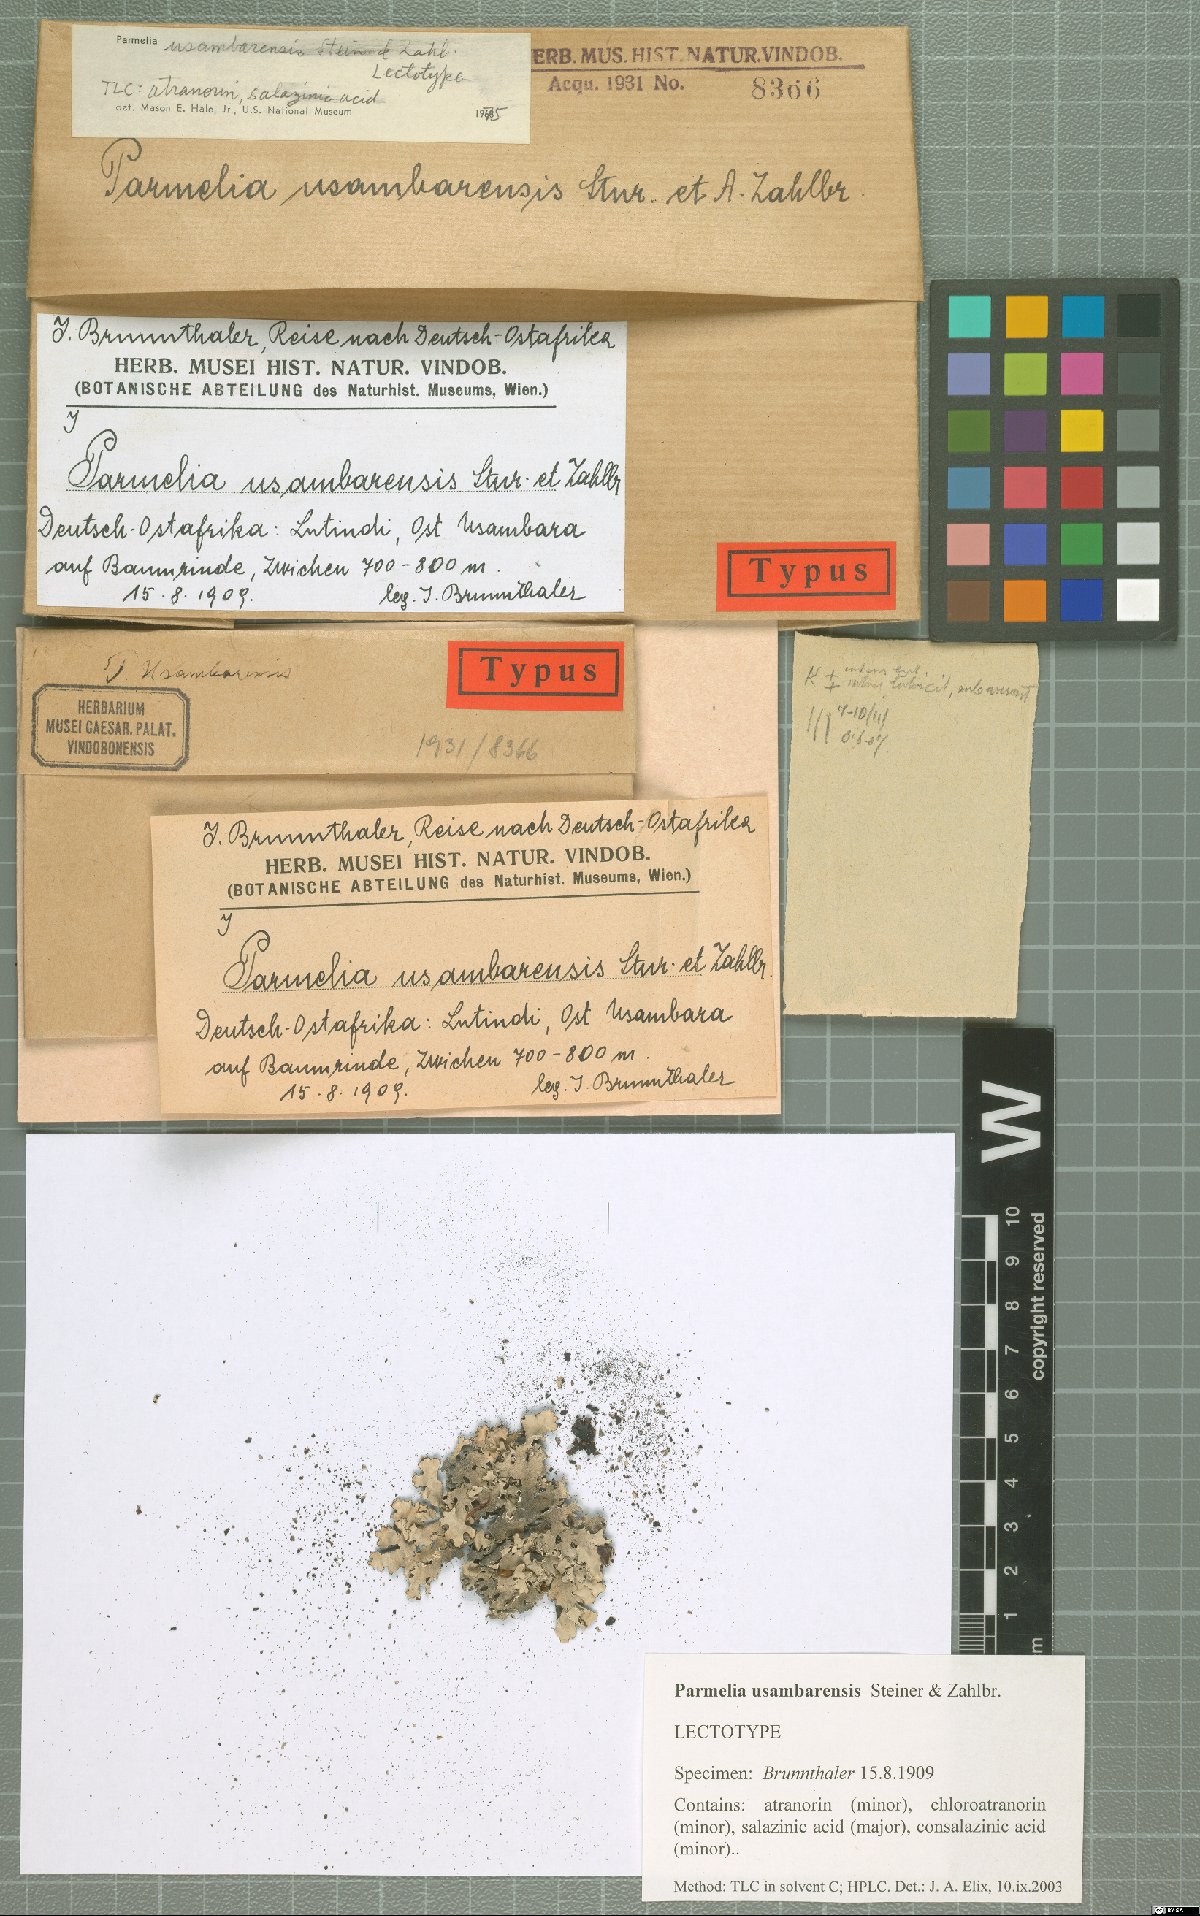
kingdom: Fungi
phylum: Ascomycota
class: Lecanoromycetes
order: Lecanorales
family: Parmeliaceae
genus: Pseudoparmelia
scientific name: Pseudoparmelia usambarensis
